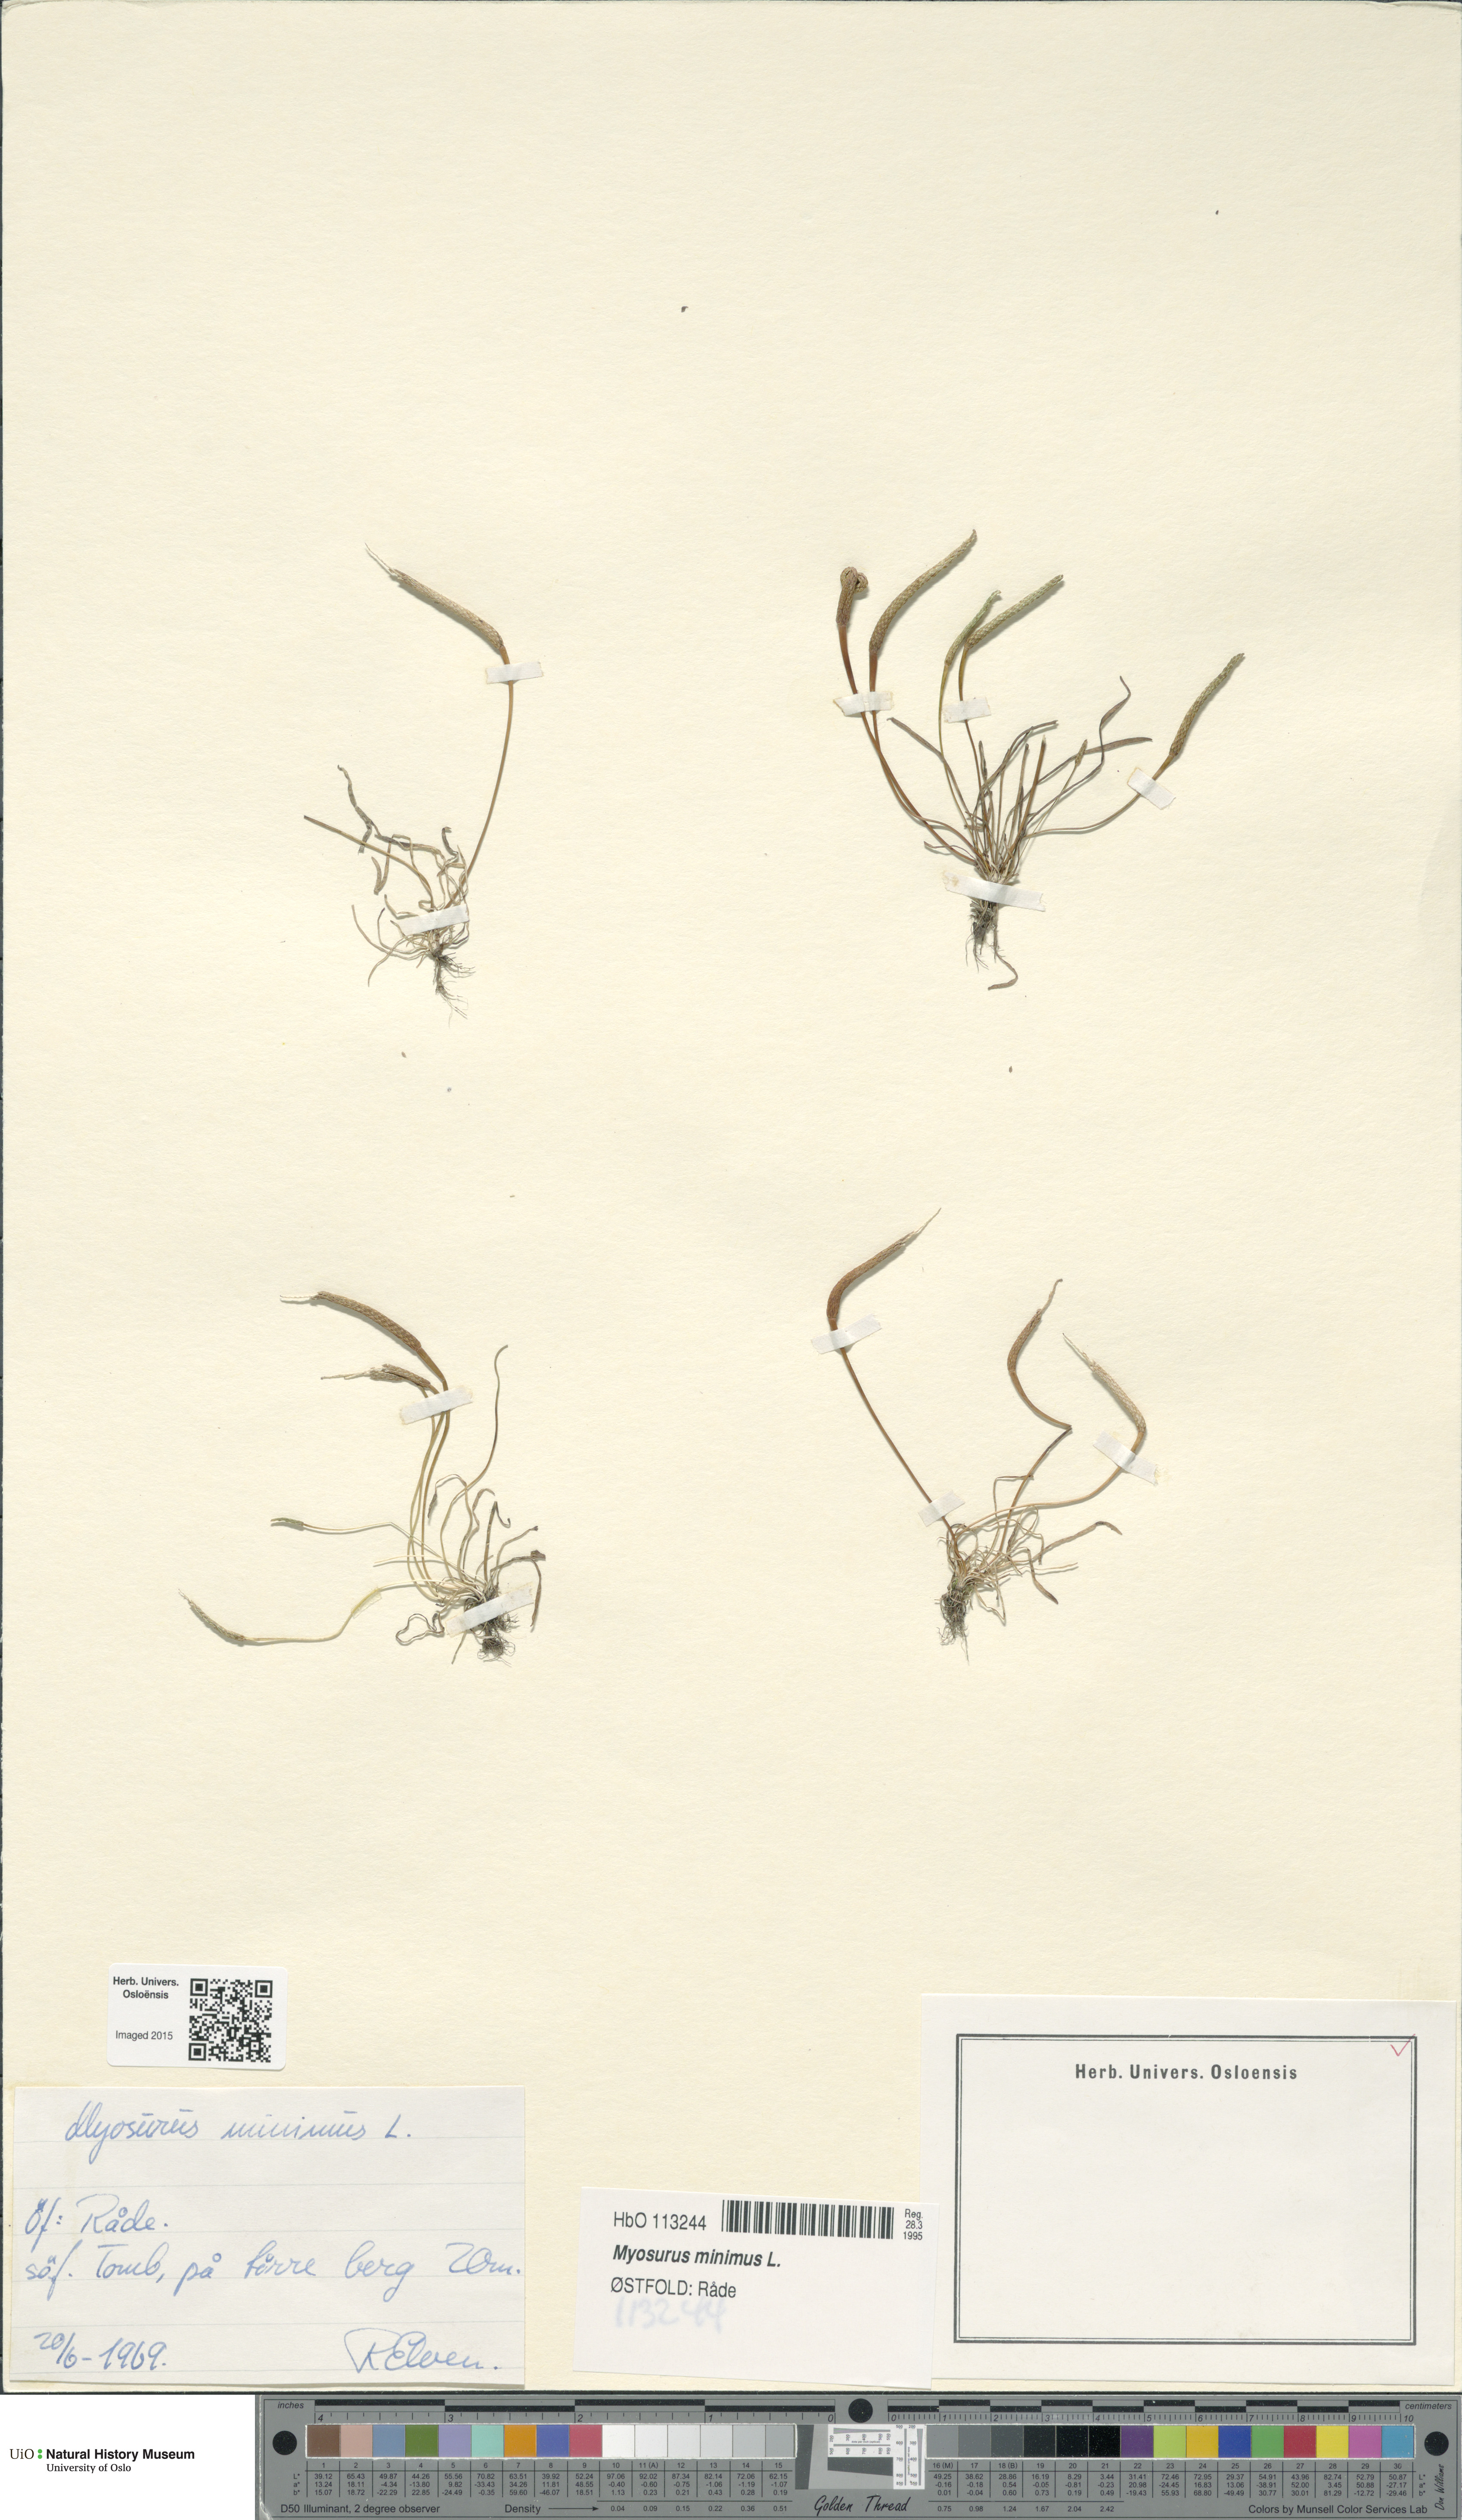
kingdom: Plantae
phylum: Tracheophyta
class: Magnoliopsida
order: Ranunculales
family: Ranunculaceae
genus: Myosurus
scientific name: Myosurus minimus
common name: Mousetail
